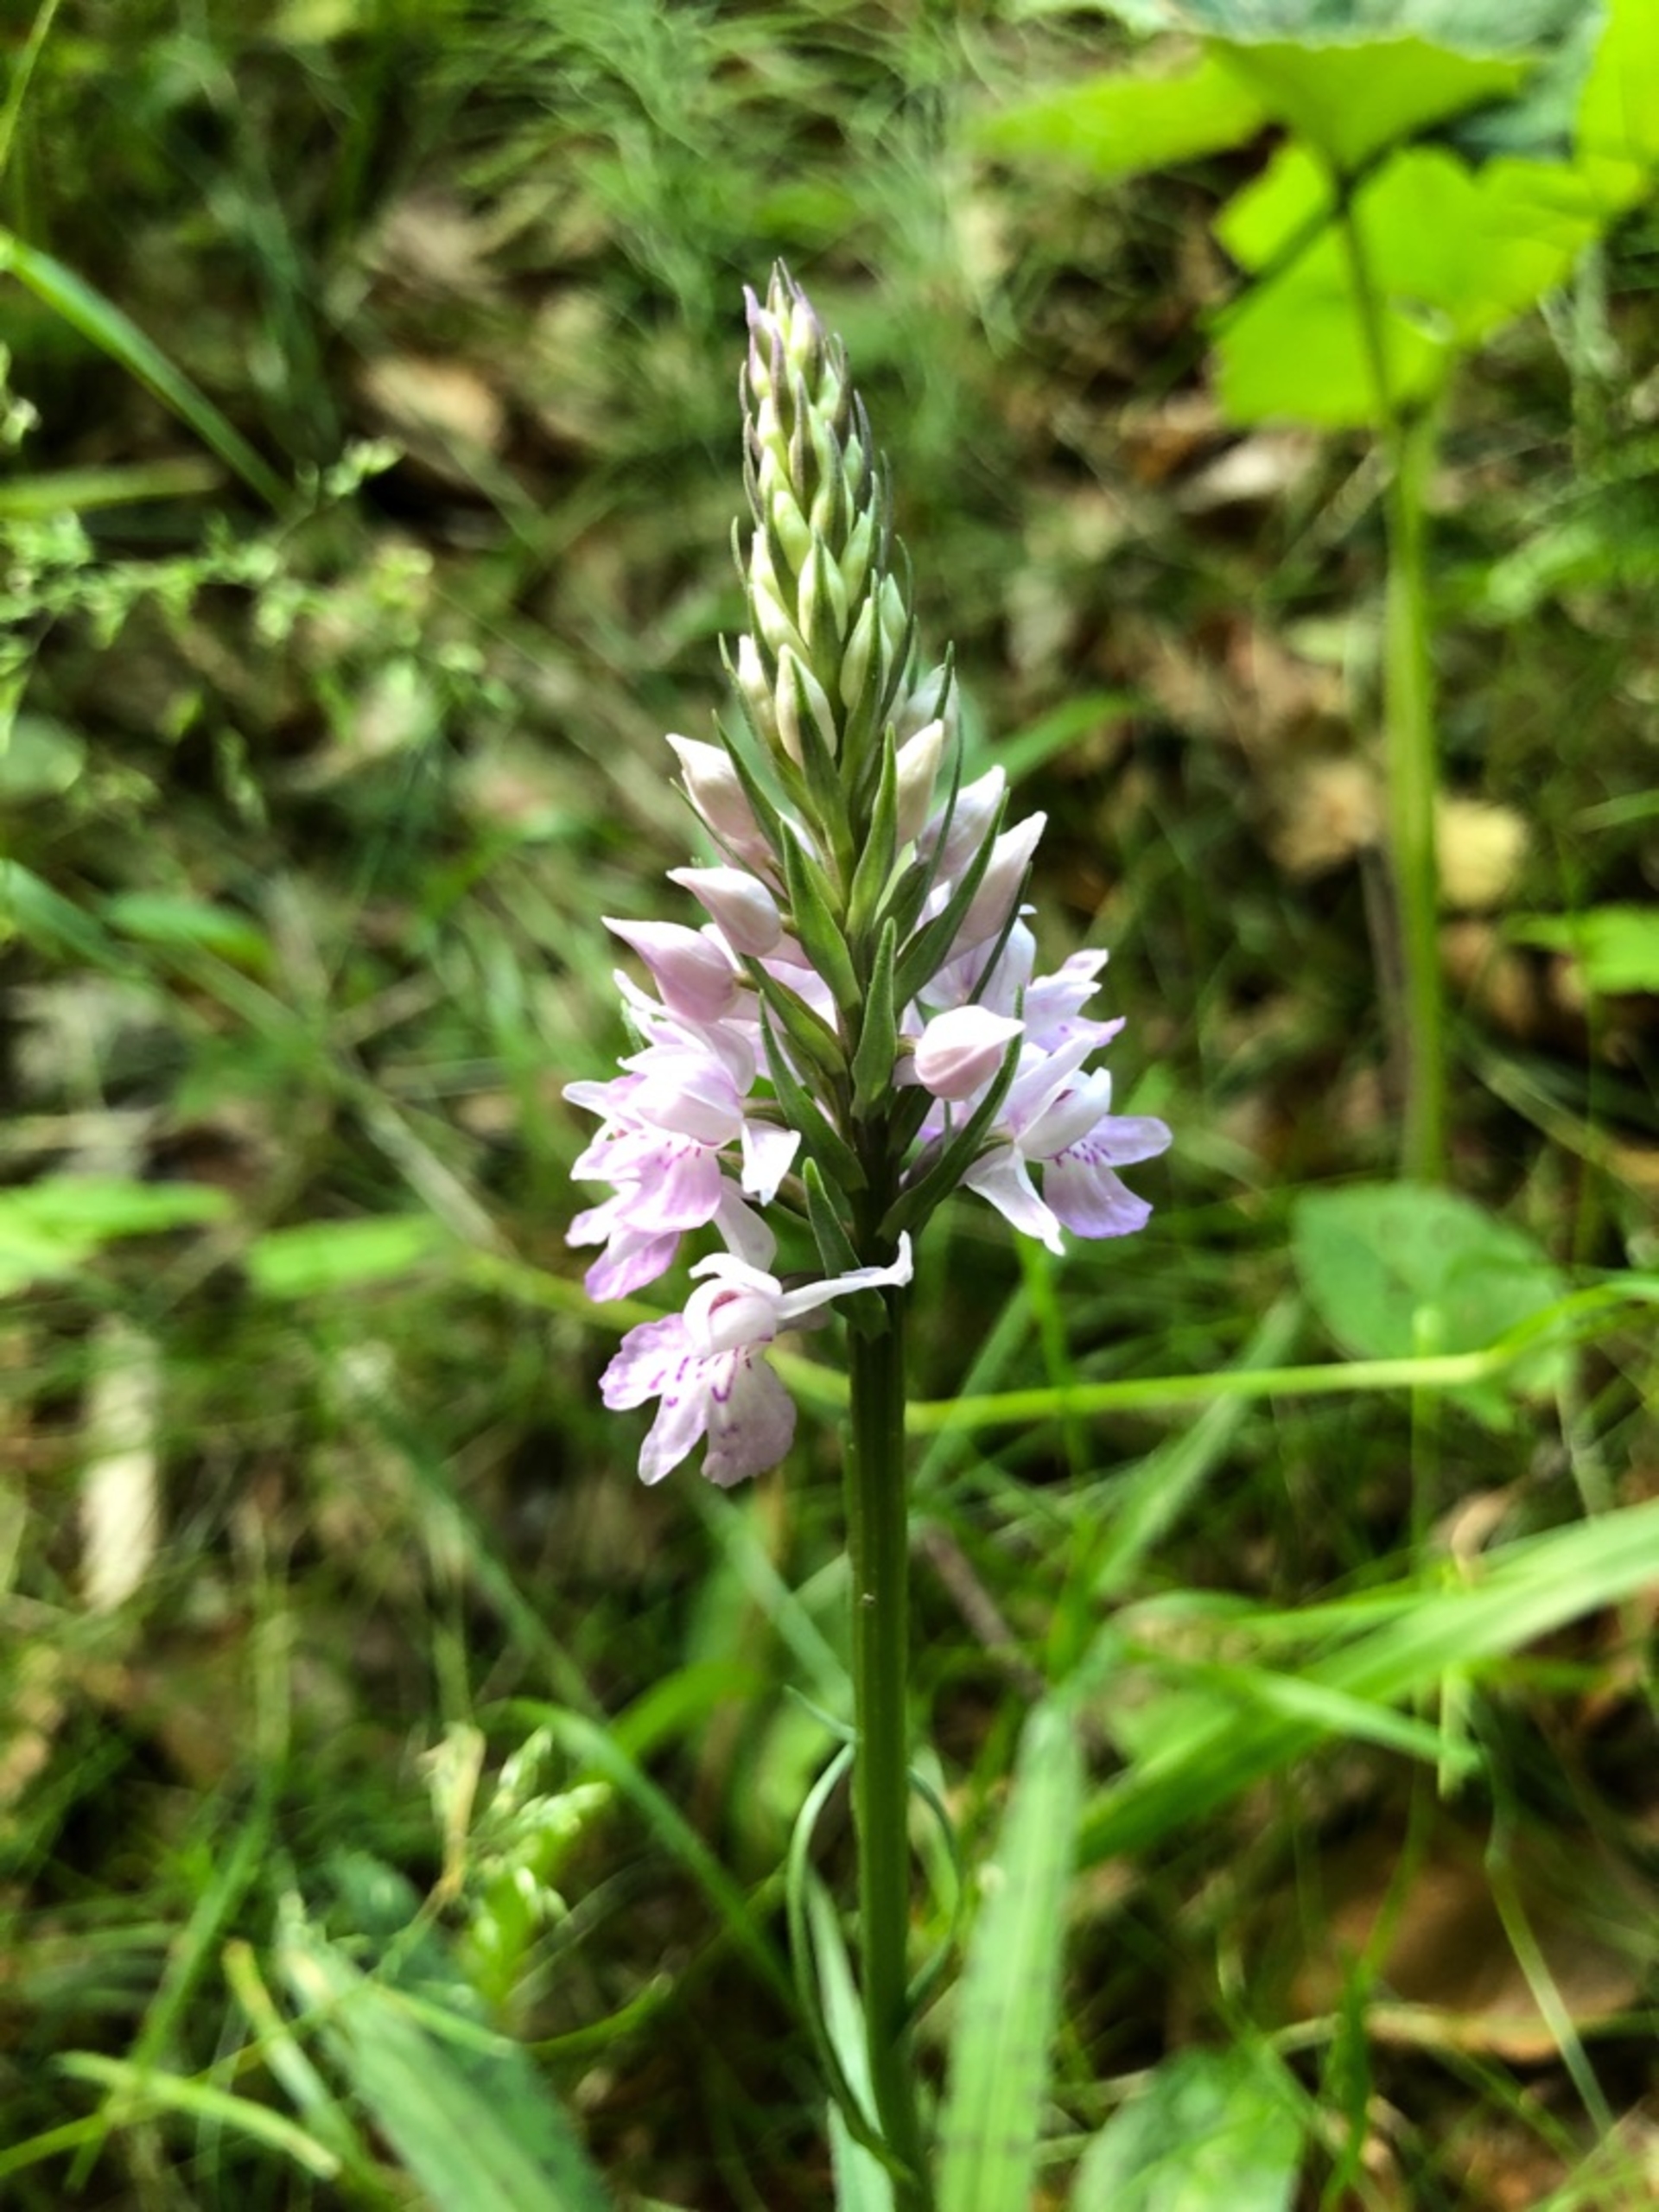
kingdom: Plantae
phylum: Tracheophyta
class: Liliopsida
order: Asparagales
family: Orchidaceae
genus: Dactylorhiza
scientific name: Dactylorhiza maculata
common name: Skov-gøgeurt
